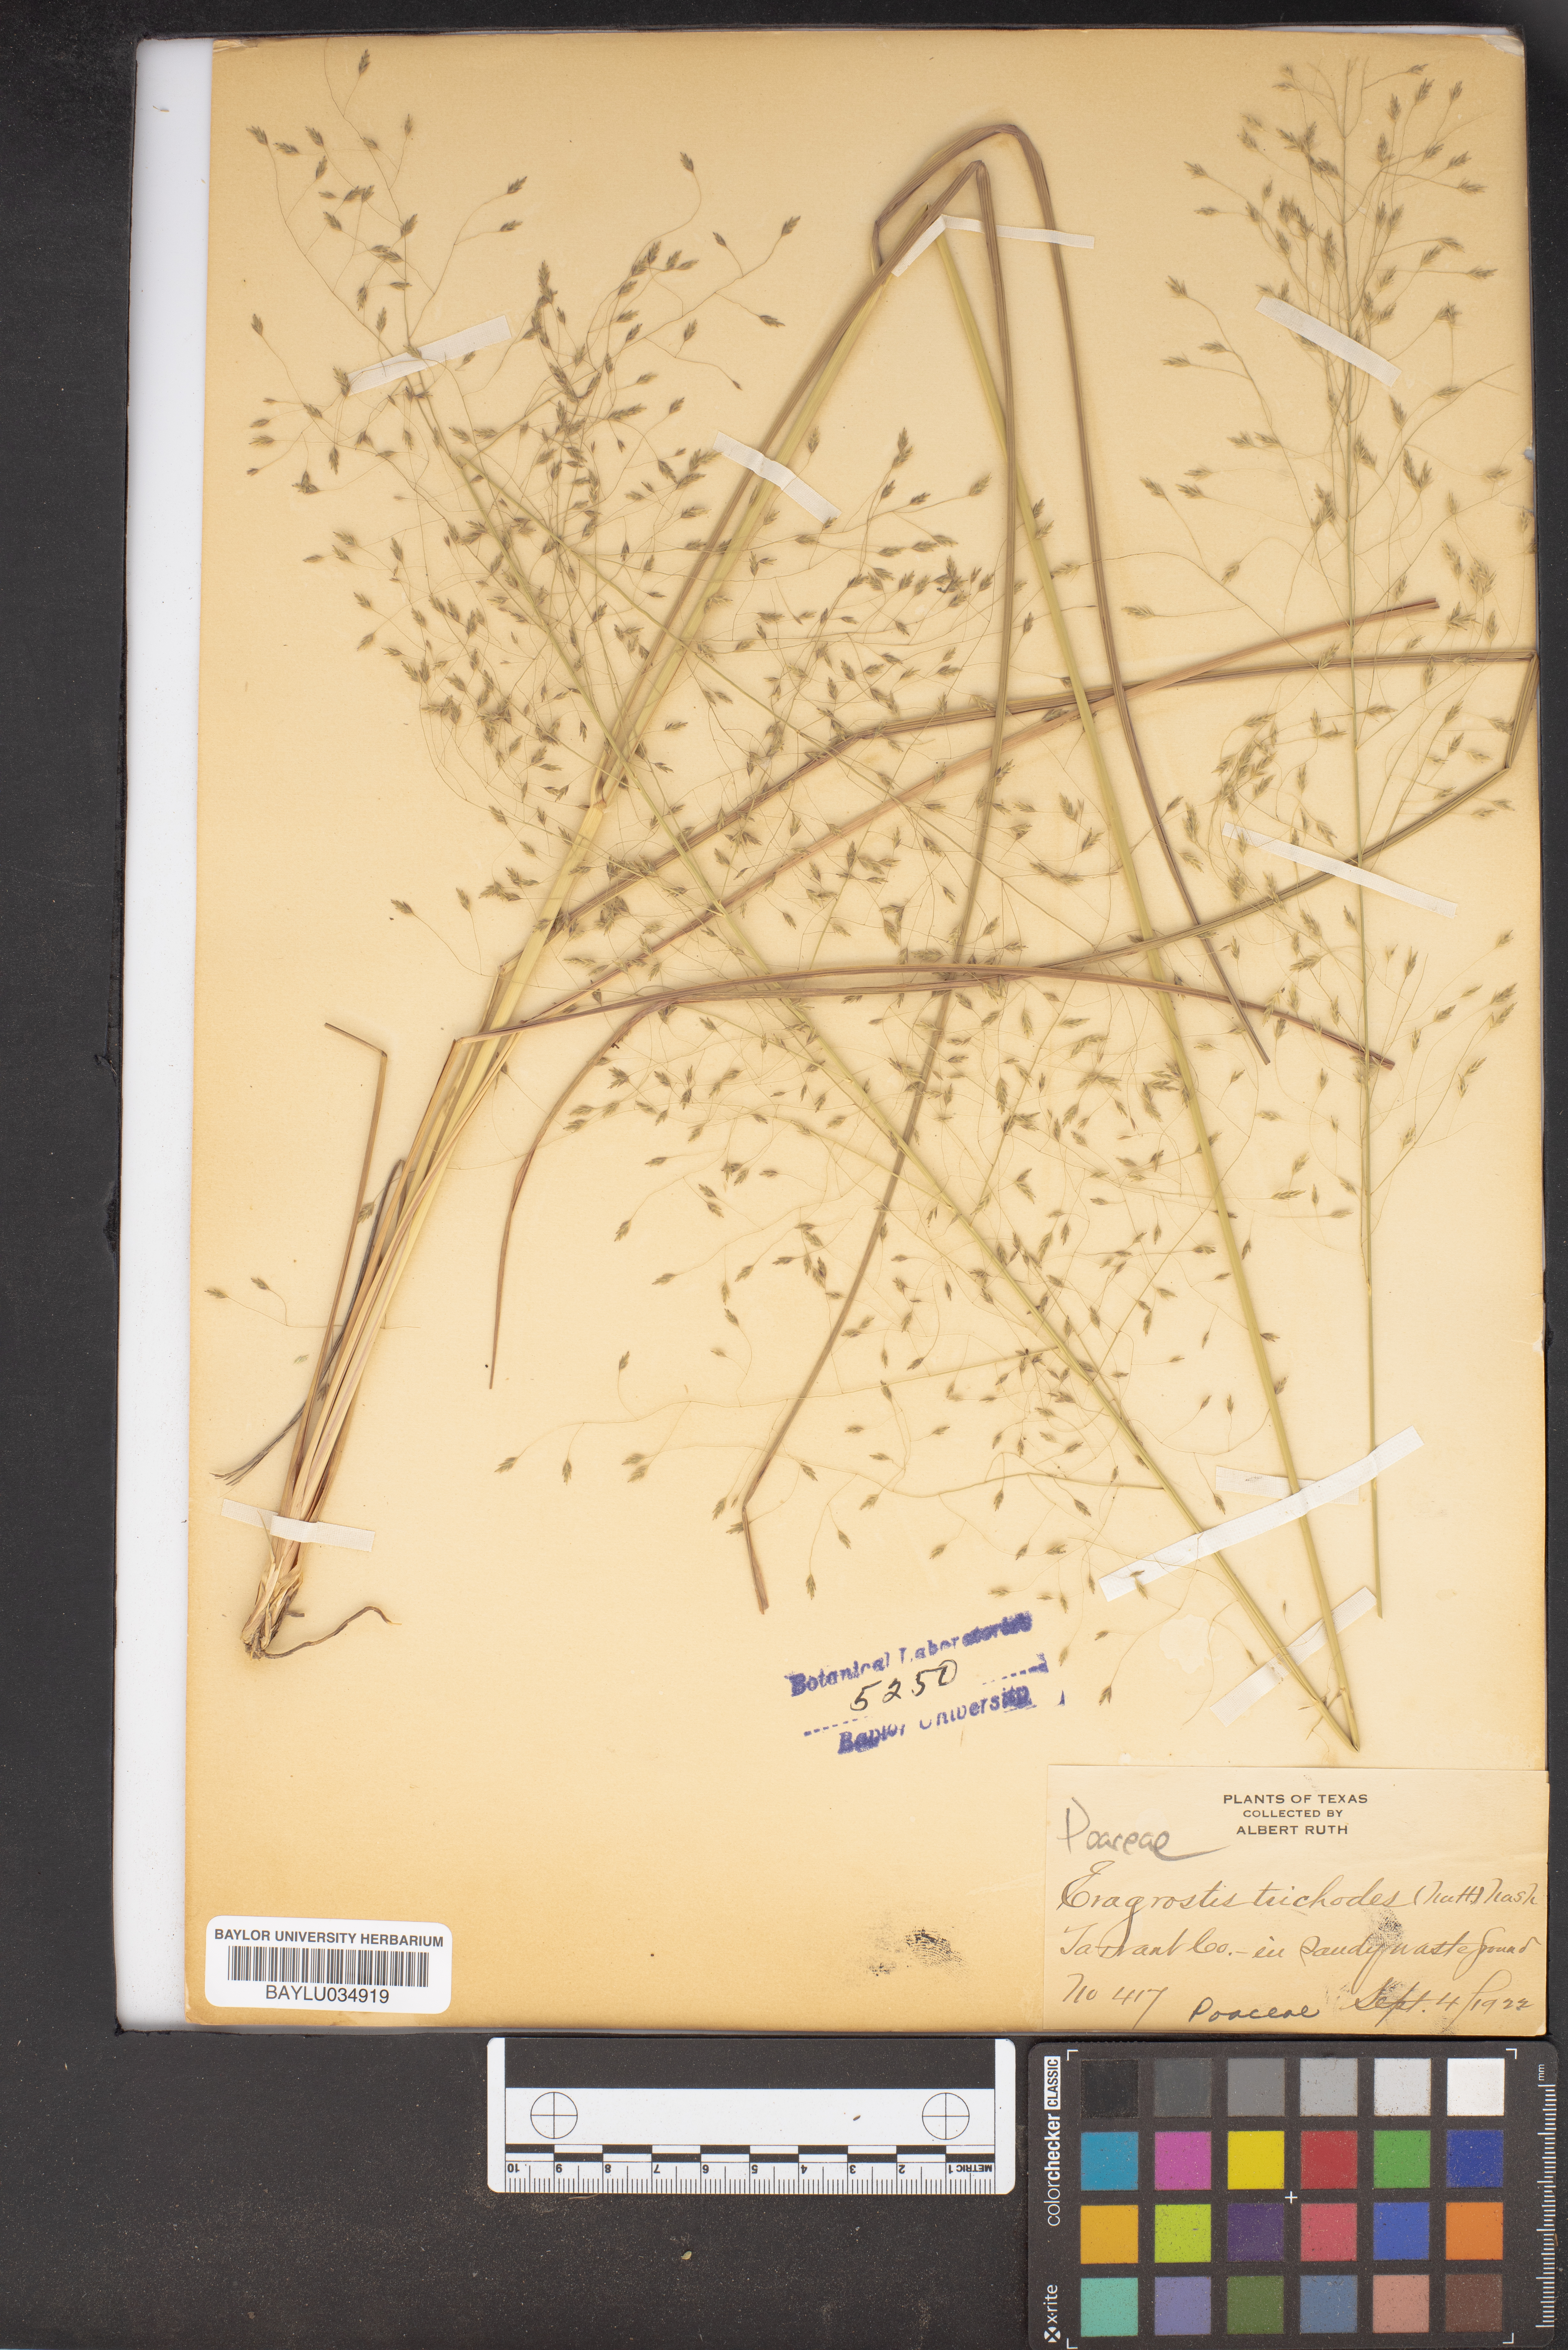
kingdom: Plantae
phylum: Tracheophyta
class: Liliopsida
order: Poales
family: Poaceae
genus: Eragrostis
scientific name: Eragrostis trichodes
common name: Sand love grass
